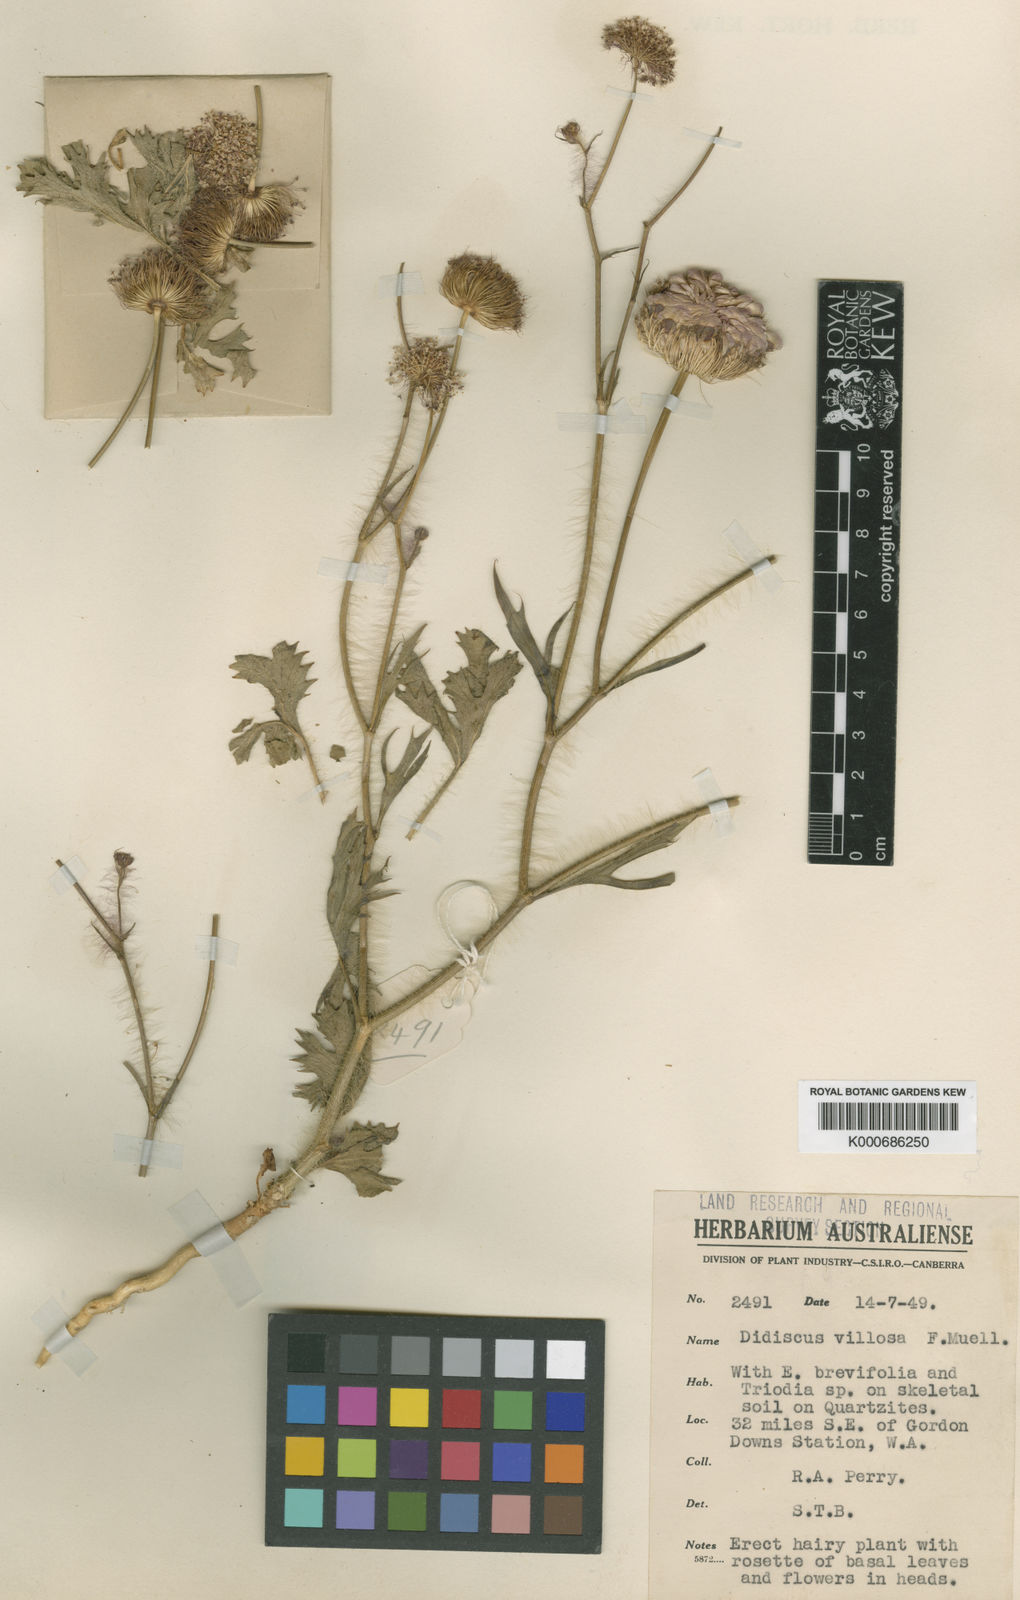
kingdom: Plantae
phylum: Tracheophyta
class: Magnoliopsida
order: Apiales
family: Araliaceae
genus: Trachymene
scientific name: Trachymene villosa
